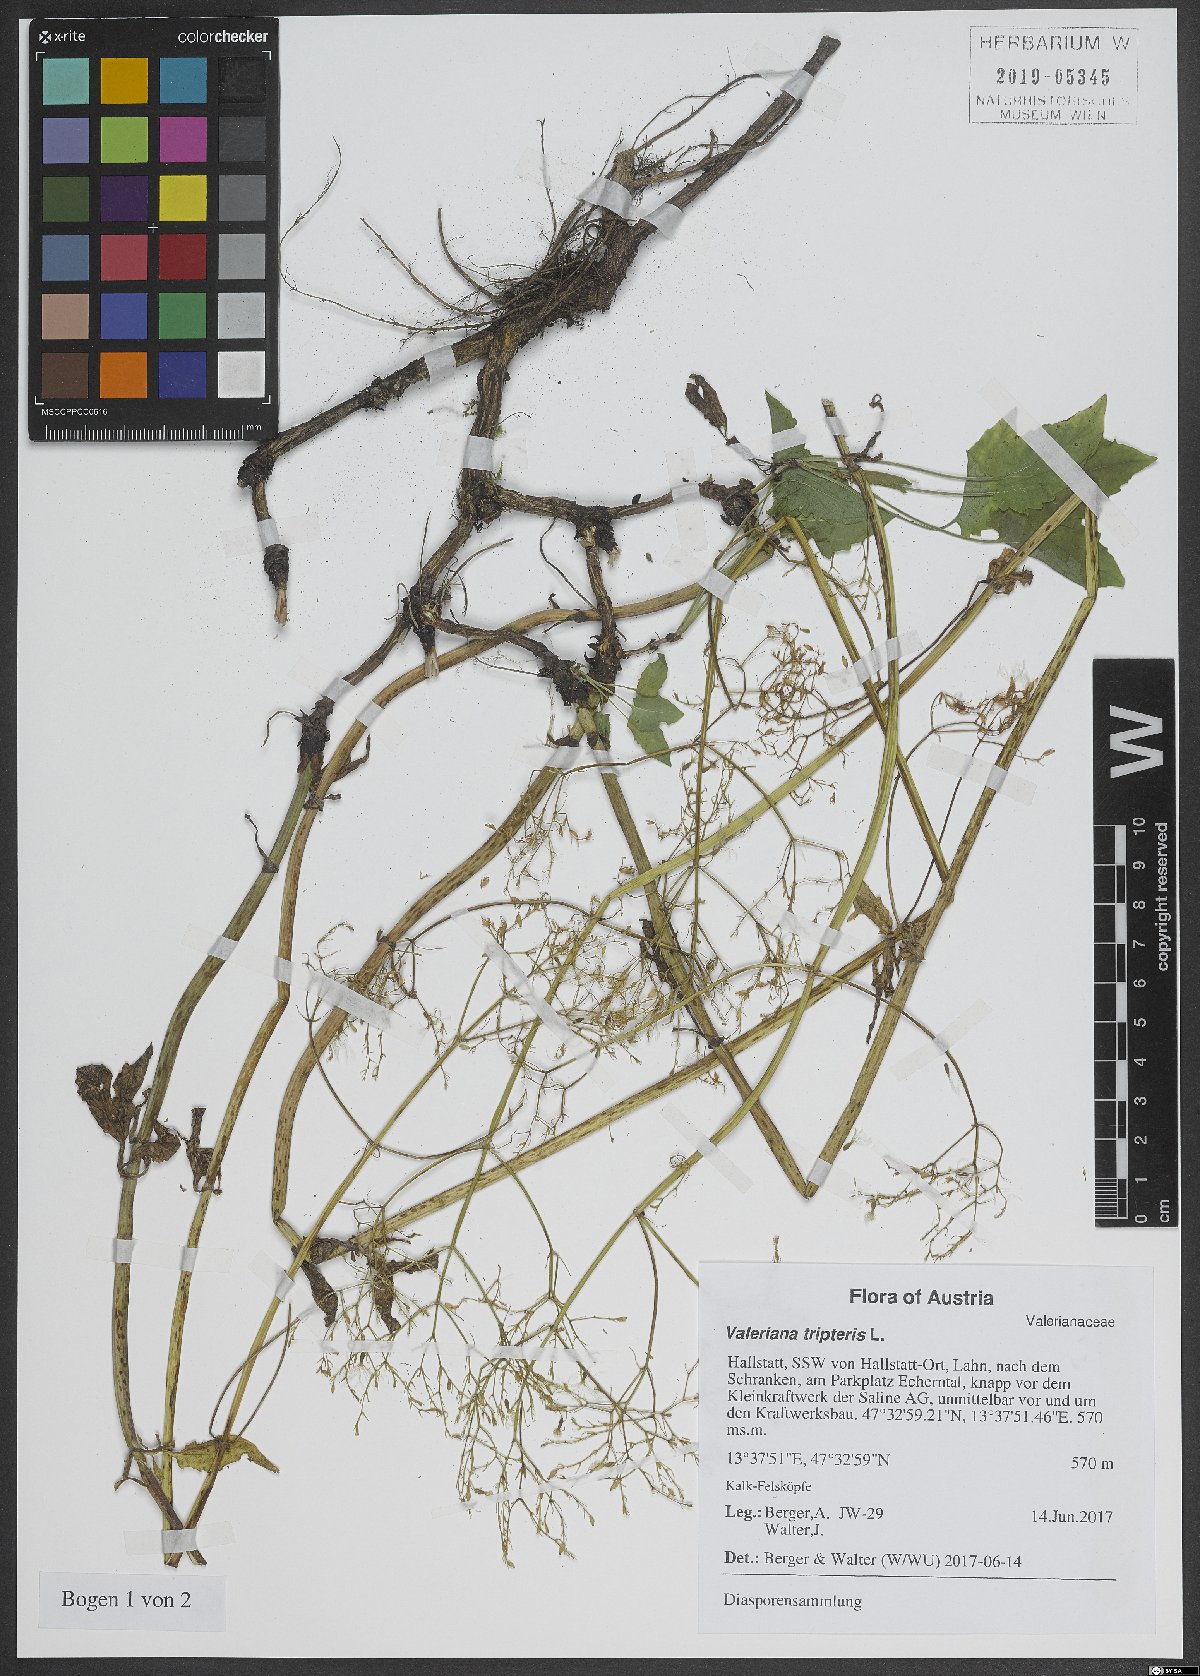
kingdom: Plantae
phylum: Tracheophyta
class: Magnoliopsida
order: Dipsacales
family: Caprifoliaceae
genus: Valeriana
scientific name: Valeriana tripteris
